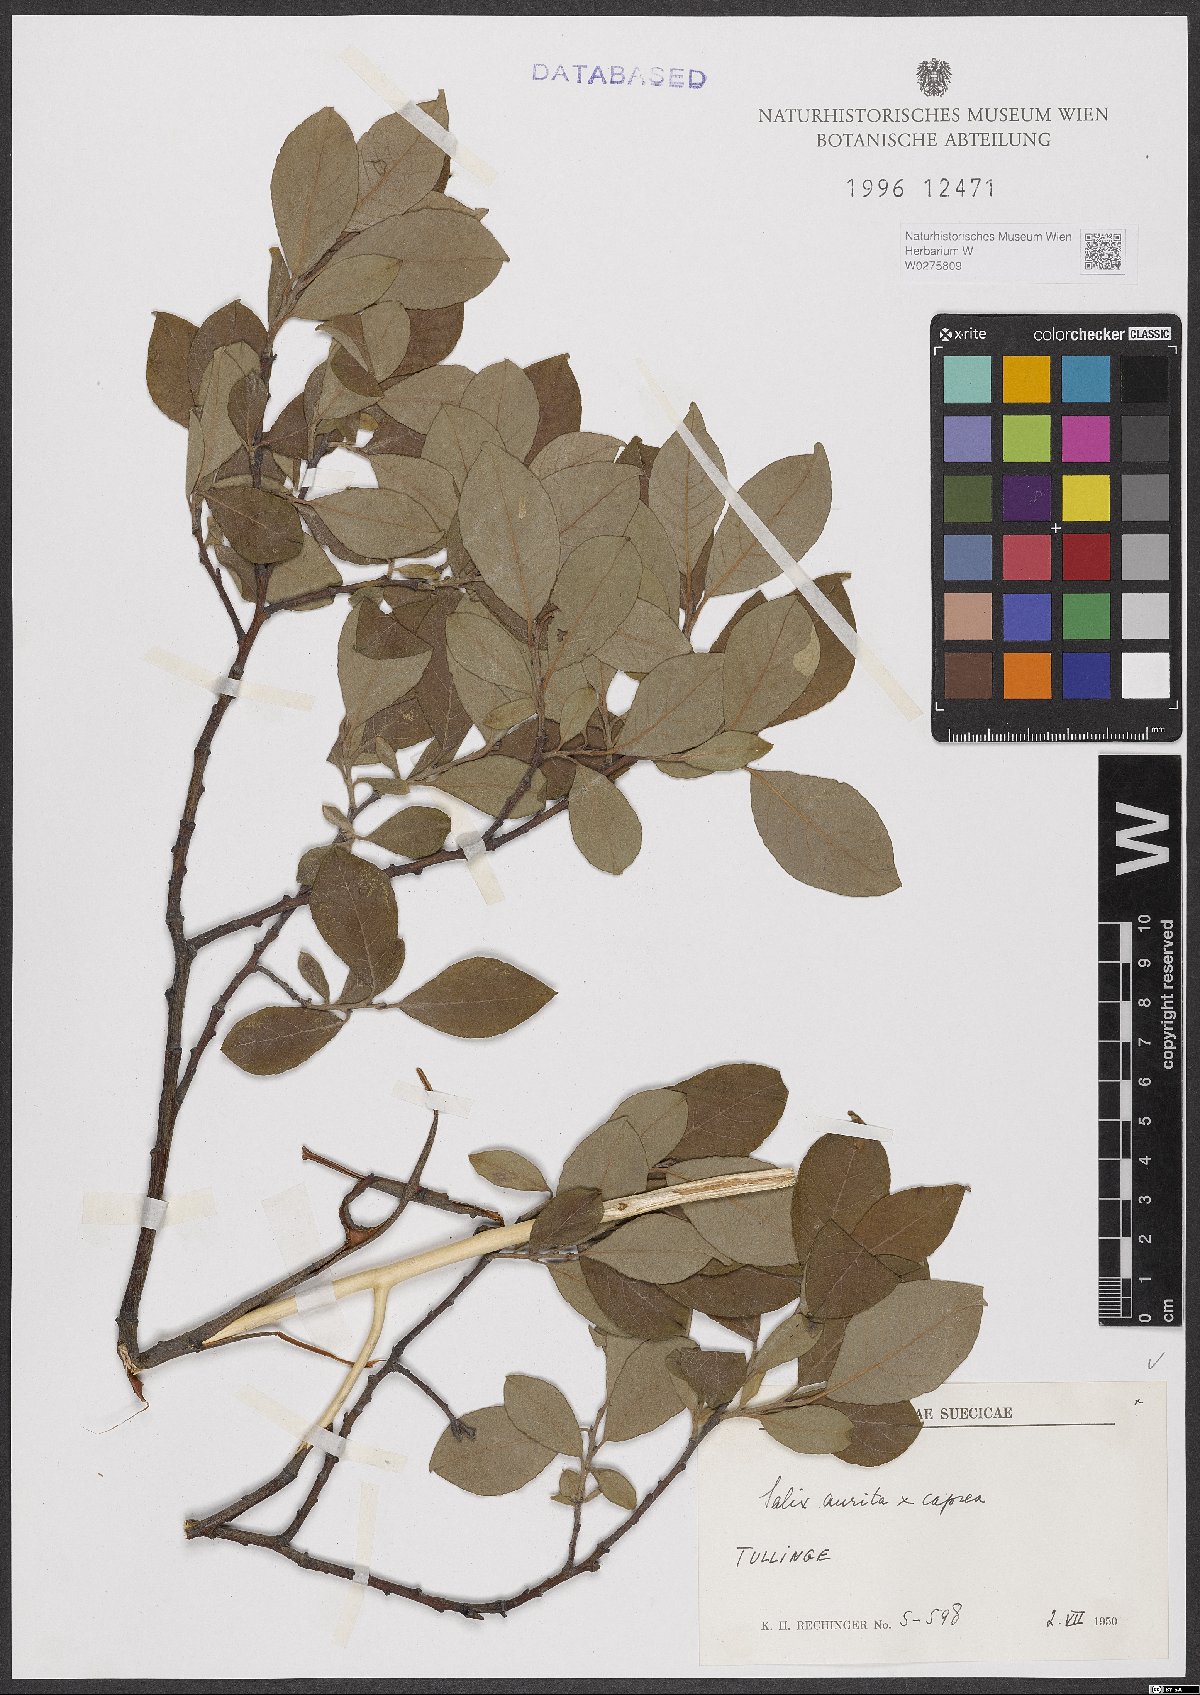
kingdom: Plantae
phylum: Tracheophyta
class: Magnoliopsida
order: Malpighiales
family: Salicaceae
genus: Salix
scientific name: Salix aurita
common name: Eared willow
